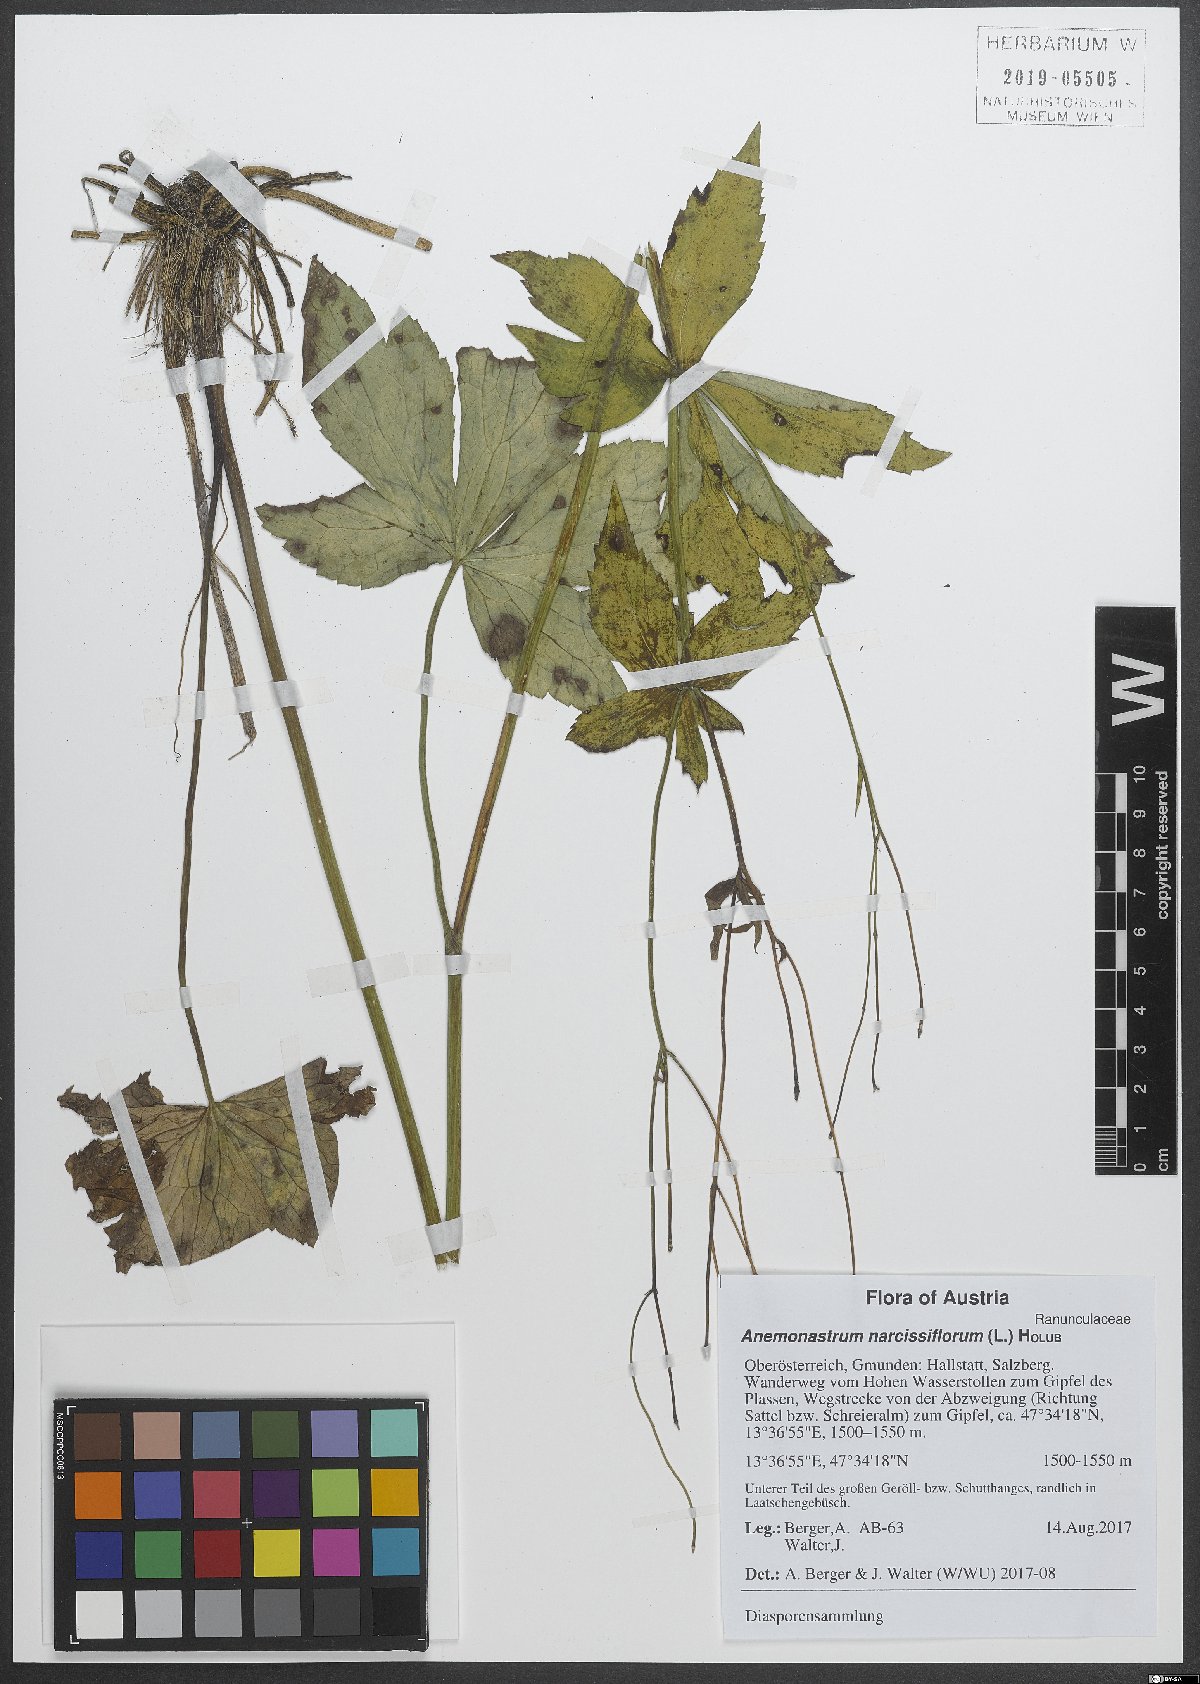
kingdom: Plantae
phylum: Tracheophyta
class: Magnoliopsida
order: Ranunculales
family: Ranunculaceae
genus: Anemonastrum
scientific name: Anemonastrum narcissiflorum
